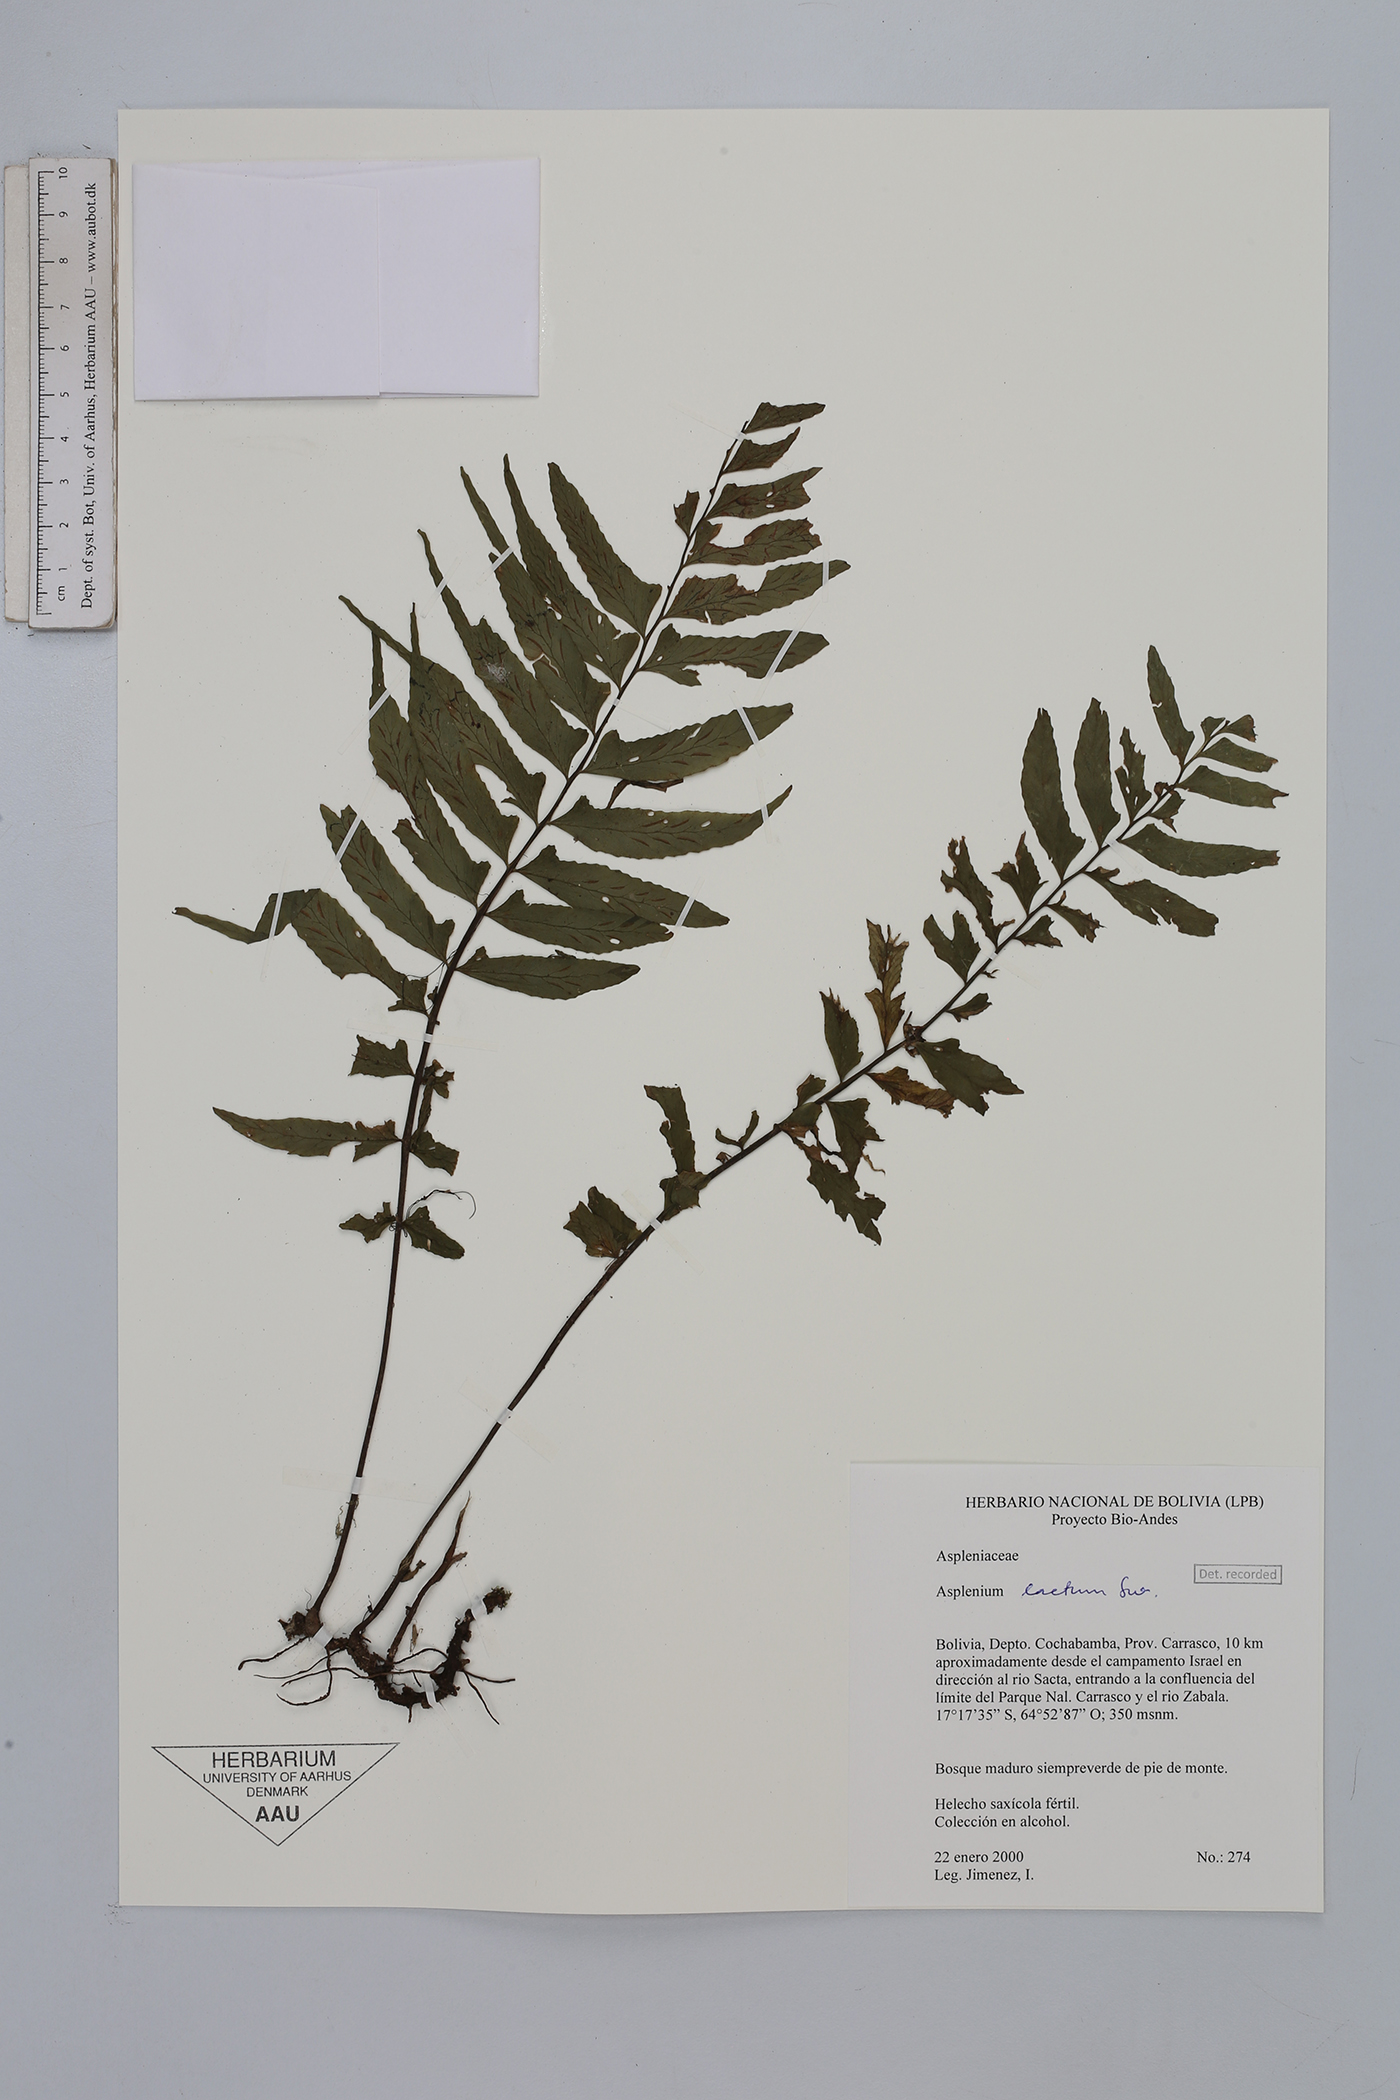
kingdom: Plantae
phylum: Tracheophyta
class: Polypodiopsida
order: Polypodiales
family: Aspleniaceae
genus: Hymenasplenium
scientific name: Hymenasplenium laetum
